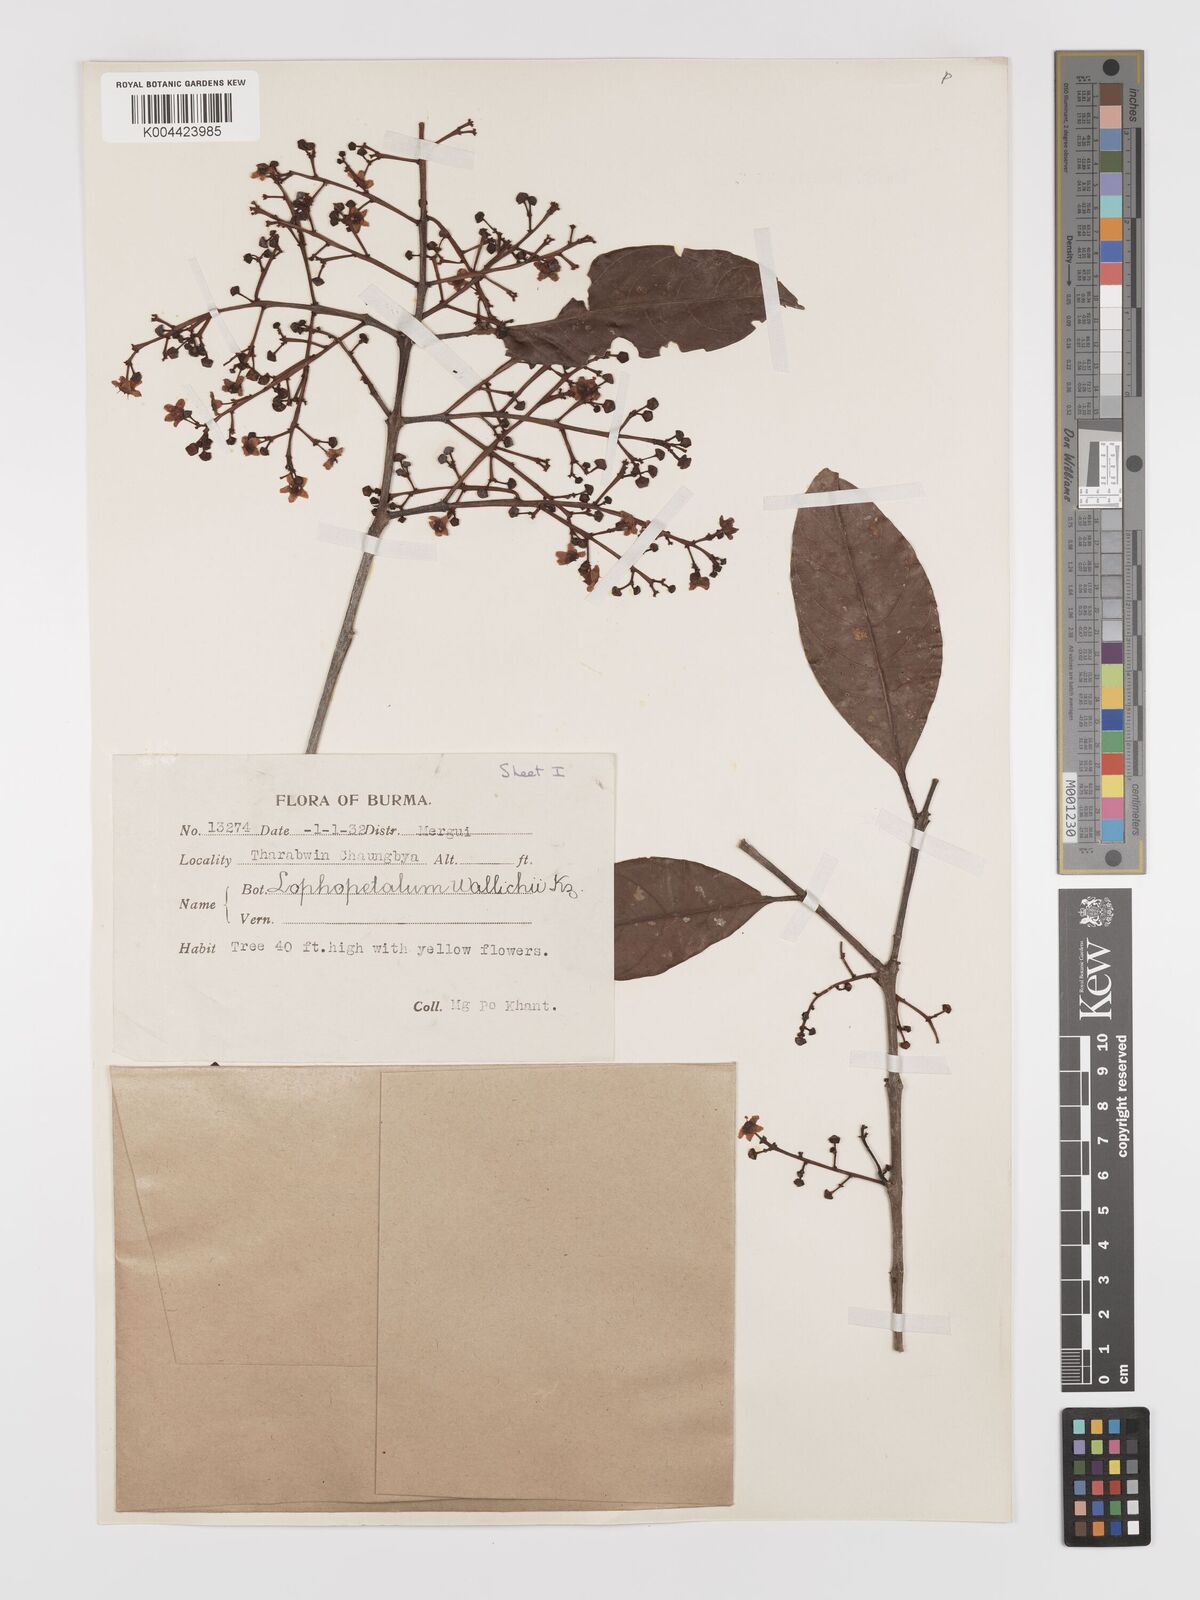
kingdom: Plantae
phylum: Tracheophyta
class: Magnoliopsida
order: Celastrales
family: Celastraceae
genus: Lophopetalum
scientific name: Lophopetalum wallichii
